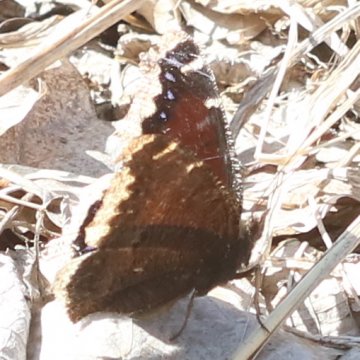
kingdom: Animalia
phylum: Arthropoda
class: Insecta
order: Lepidoptera
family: Nymphalidae
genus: Nymphalis
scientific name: Nymphalis antiopa
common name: Mourning Cloak
